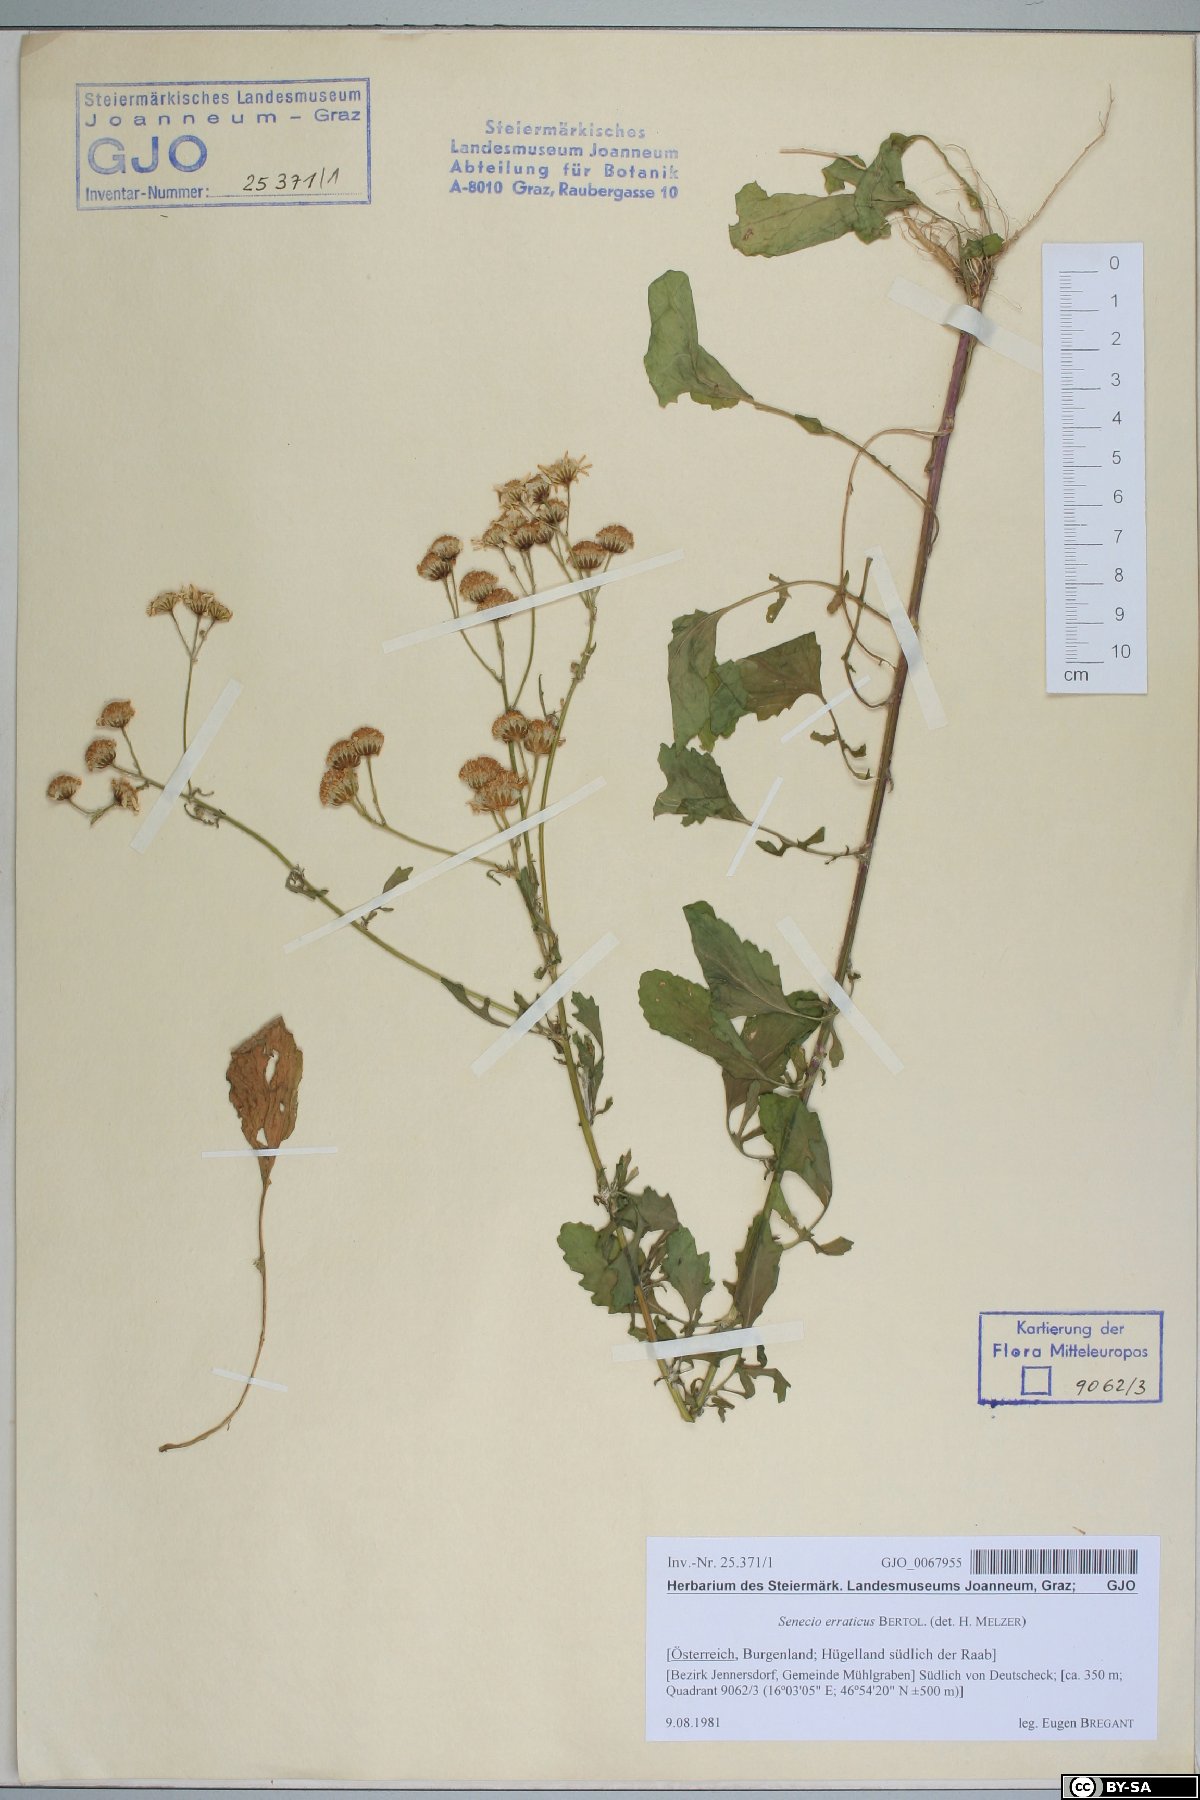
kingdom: Plantae
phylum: Tracheophyta
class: Magnoliopsida
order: Asterales
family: Asteraceae
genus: Jacobaea
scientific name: Jacobaea erratica
